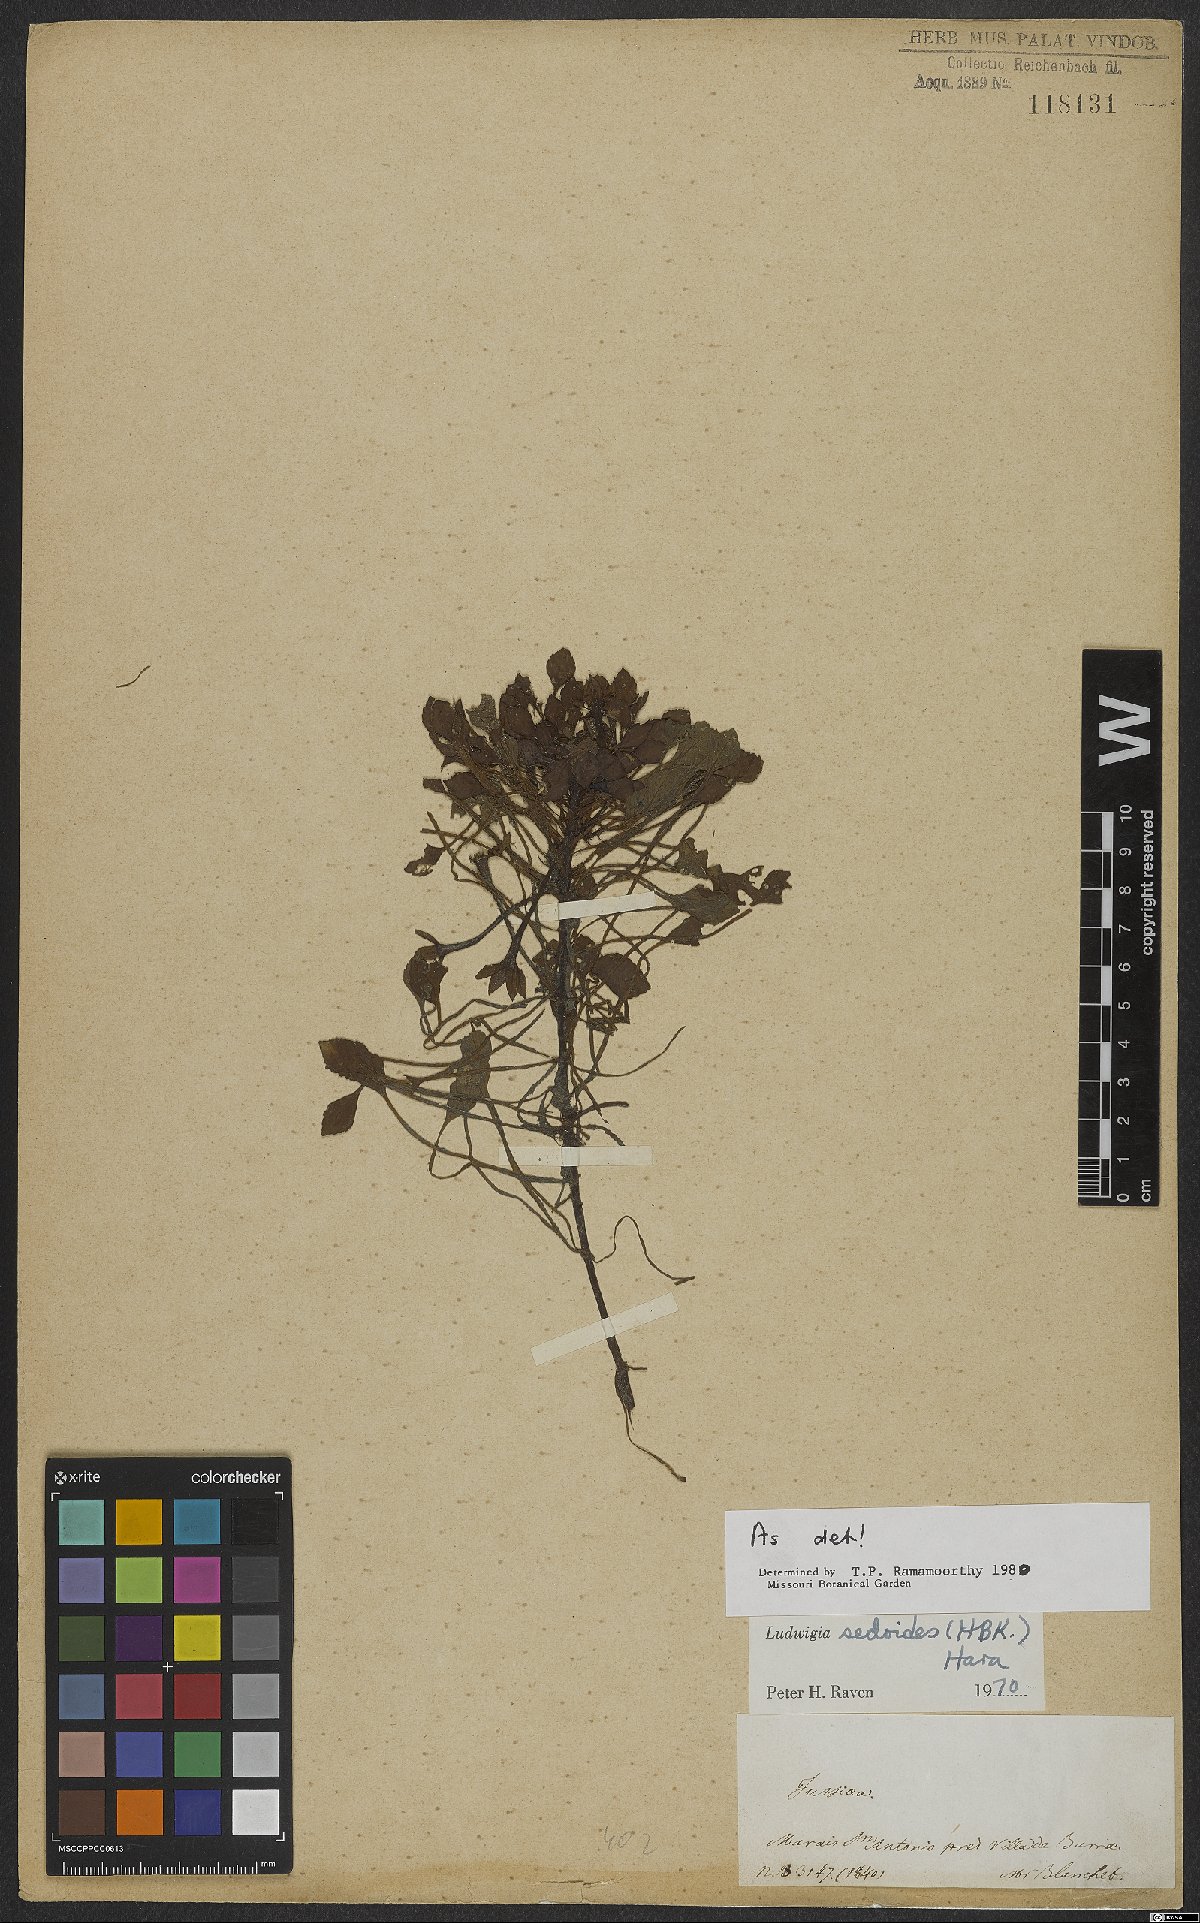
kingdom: Plantae
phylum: Tracheophyta
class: Magnoliopsida
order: Myrtales
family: Onagraceae
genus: Ludwigia
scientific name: Ludwigia sedoides
